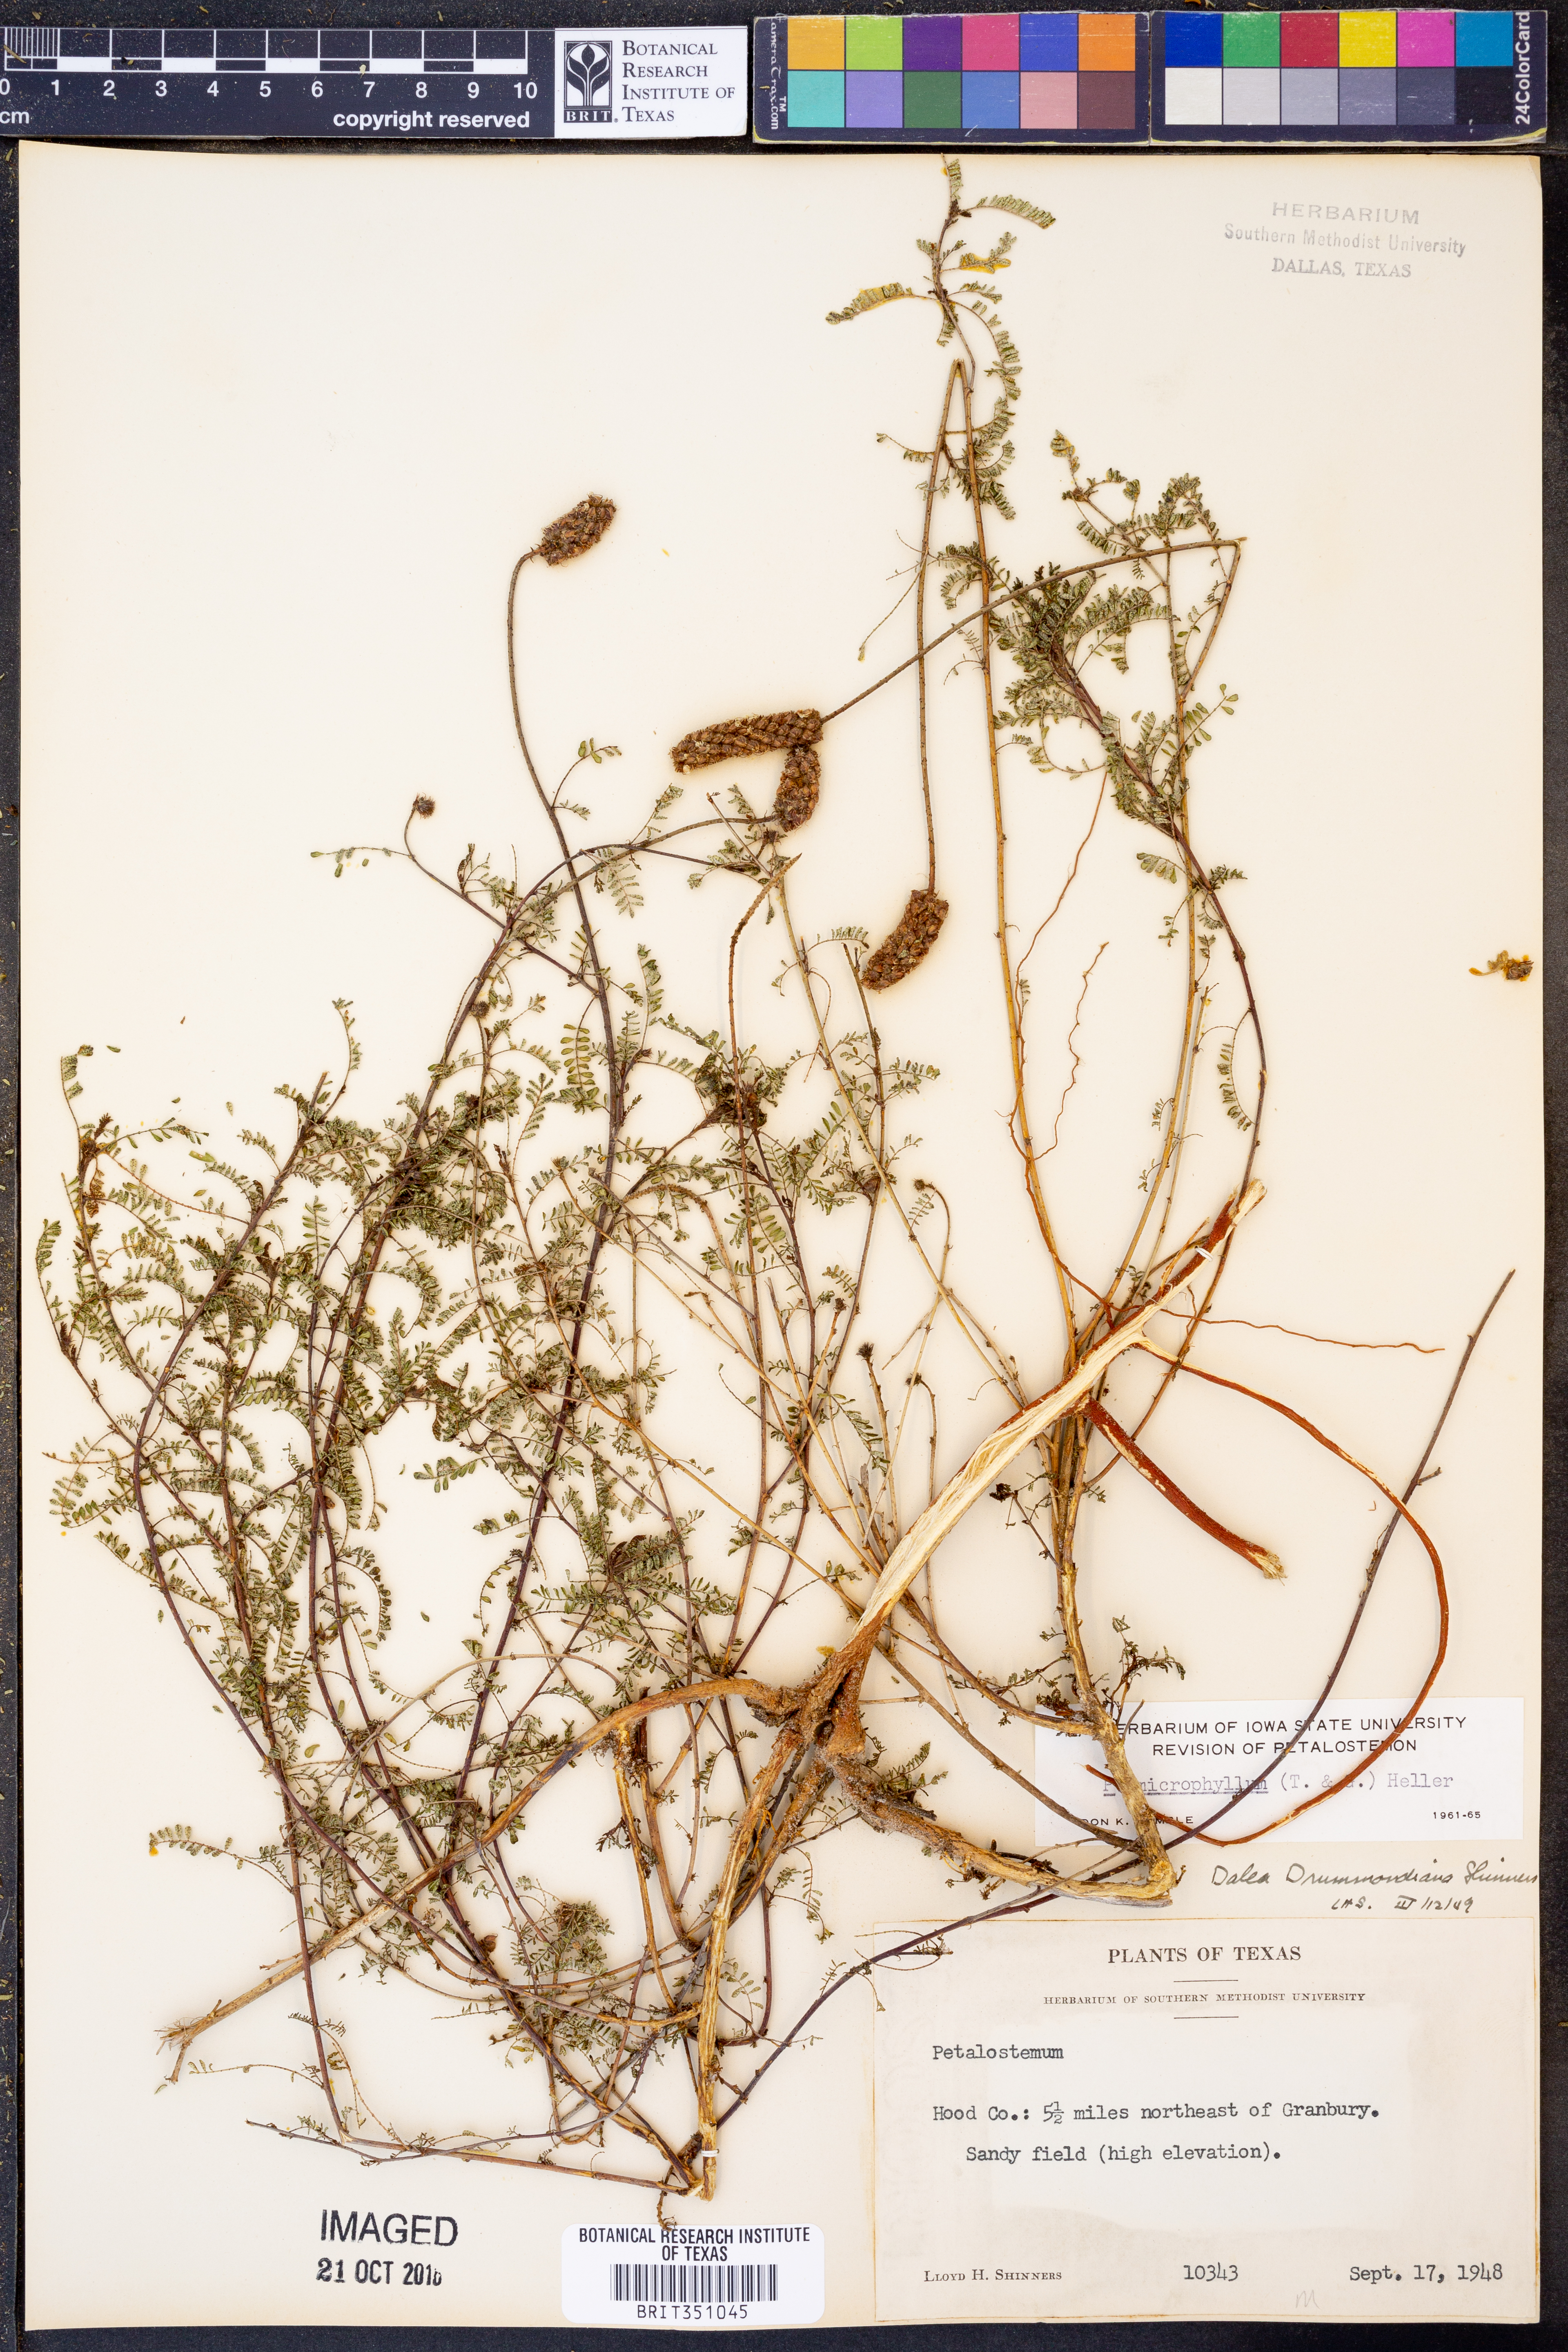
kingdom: Plantae
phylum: Tracheophyta
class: Magnoliopsida
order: Fabales
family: Fabaceae
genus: Dalea
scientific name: Dalea drummondiana
